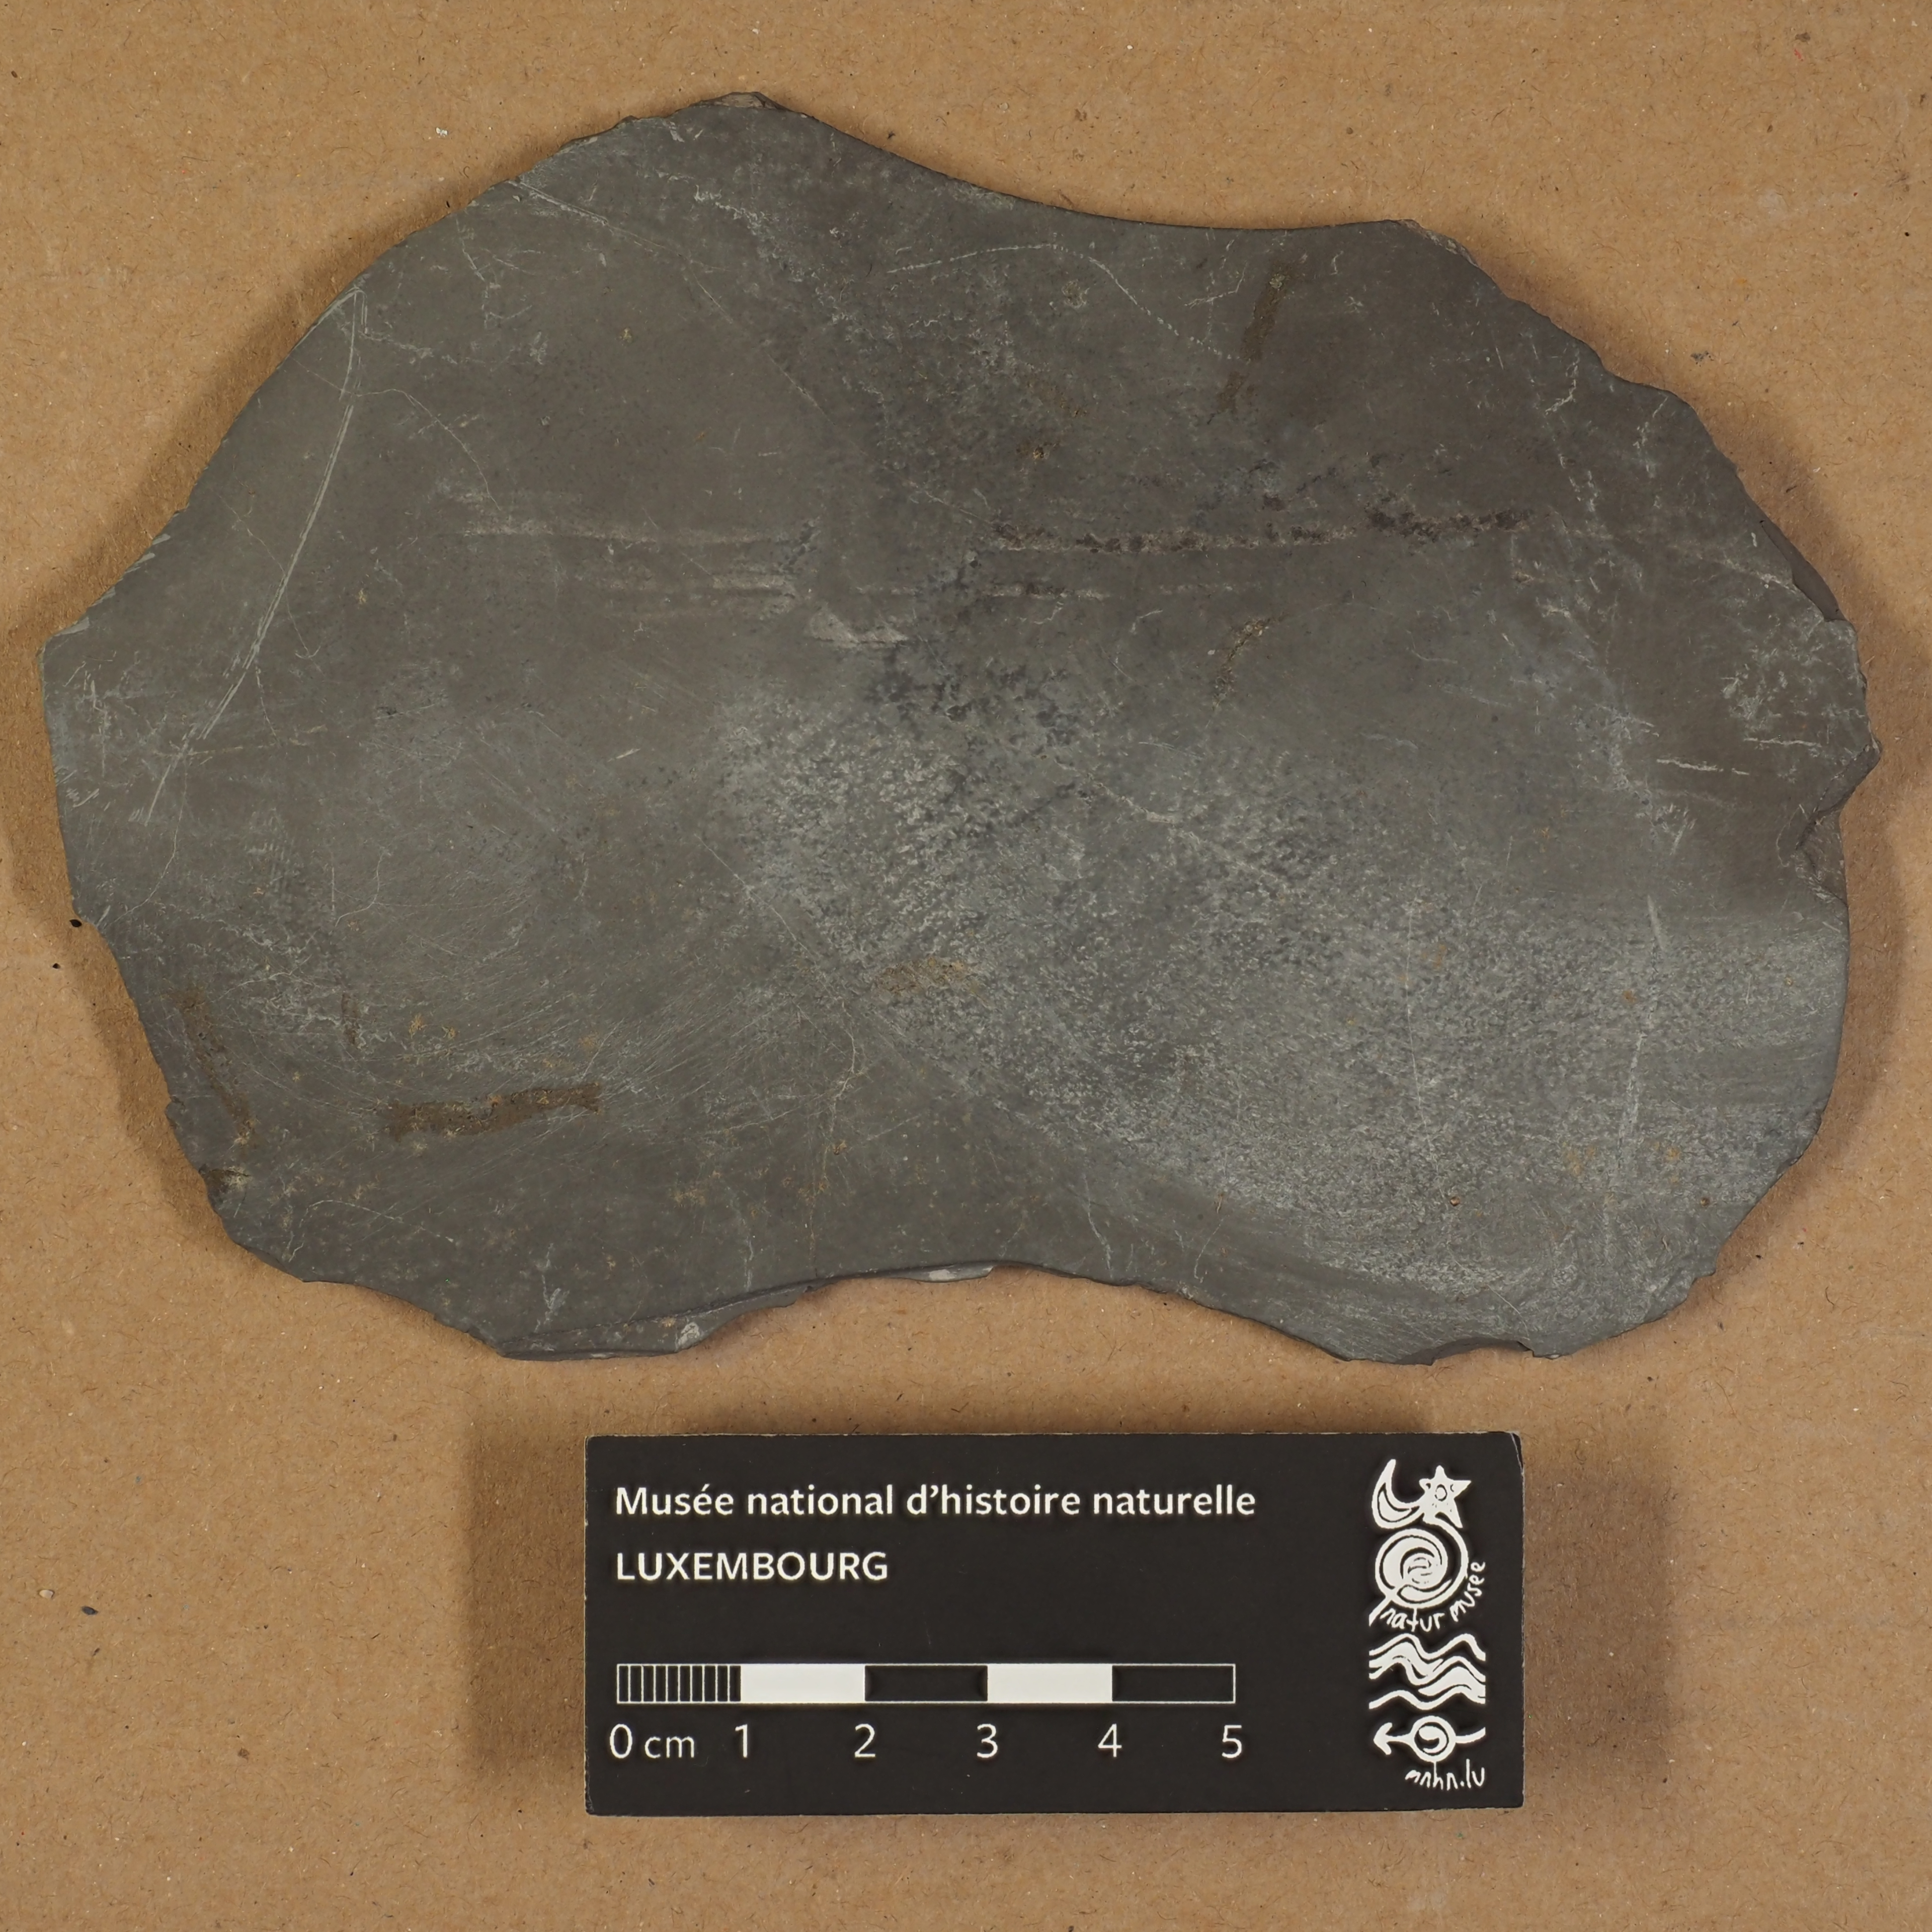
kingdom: Animalia
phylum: Arthropoda
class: Malacostraca
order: Anaspidacea
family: Uronectidae
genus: Uronectes
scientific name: Uronectes Gampsonychus fimbriatus
